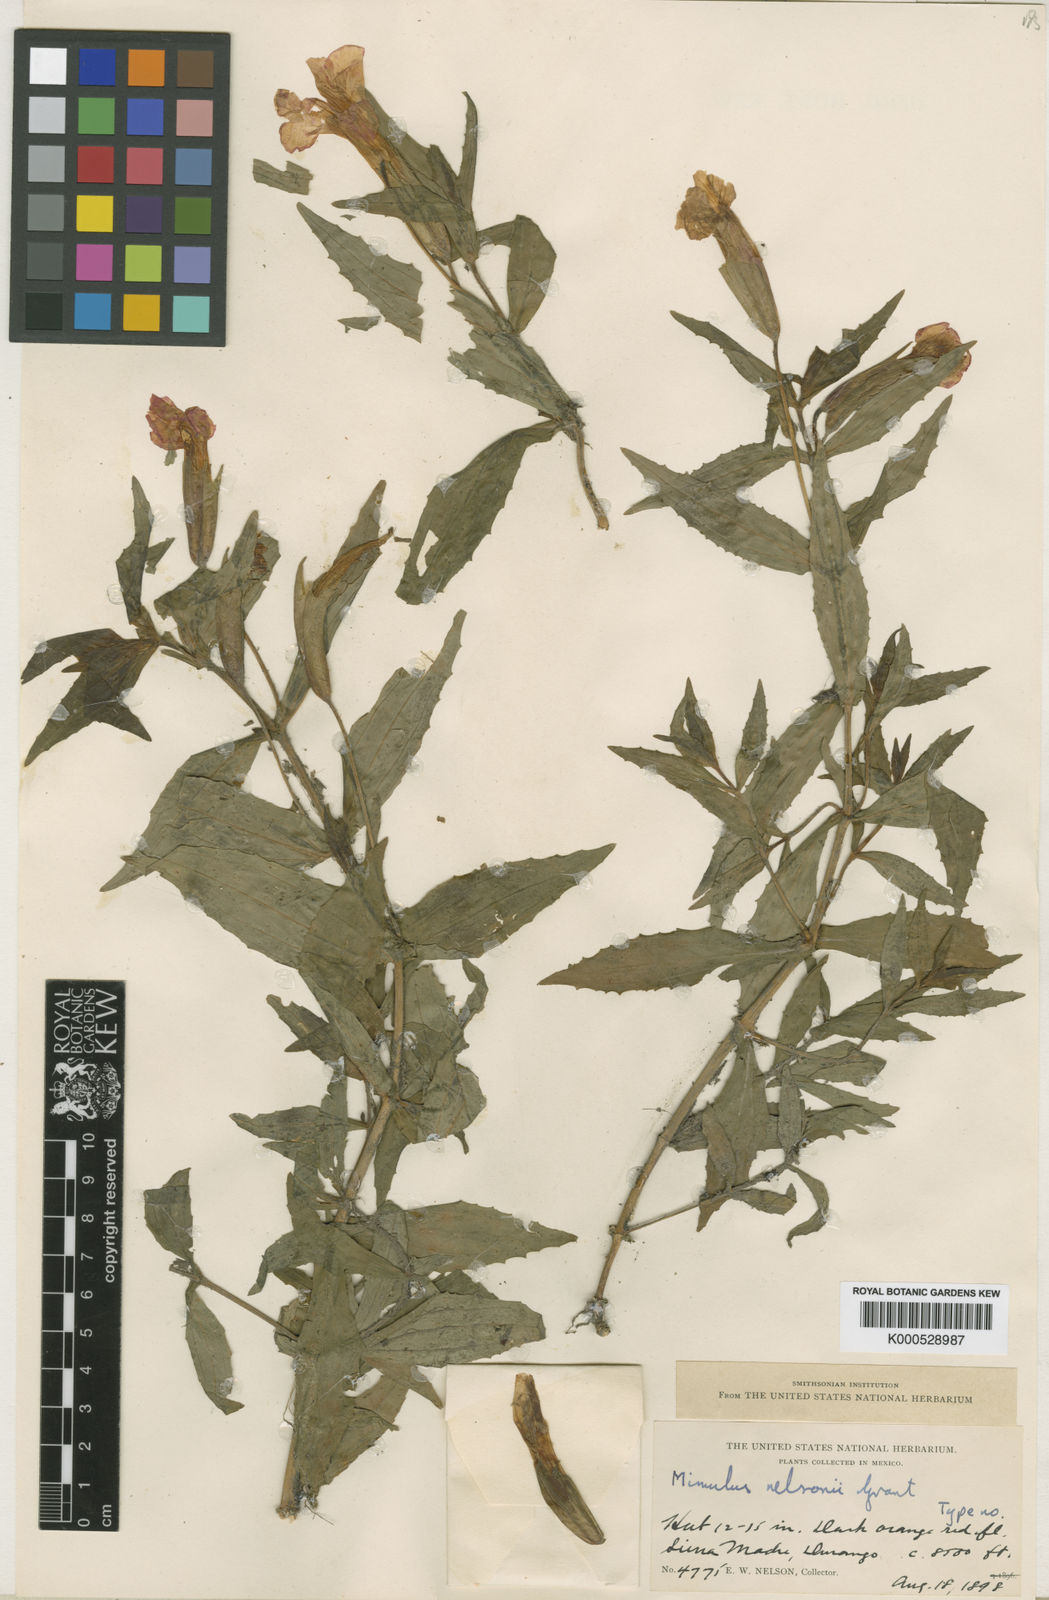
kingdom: Plantae
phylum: Tracheophyta
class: Magnoliopsida
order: Lamiales
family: Phrymaceae
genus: Erythranthe
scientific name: Erythranthe nelsonii
